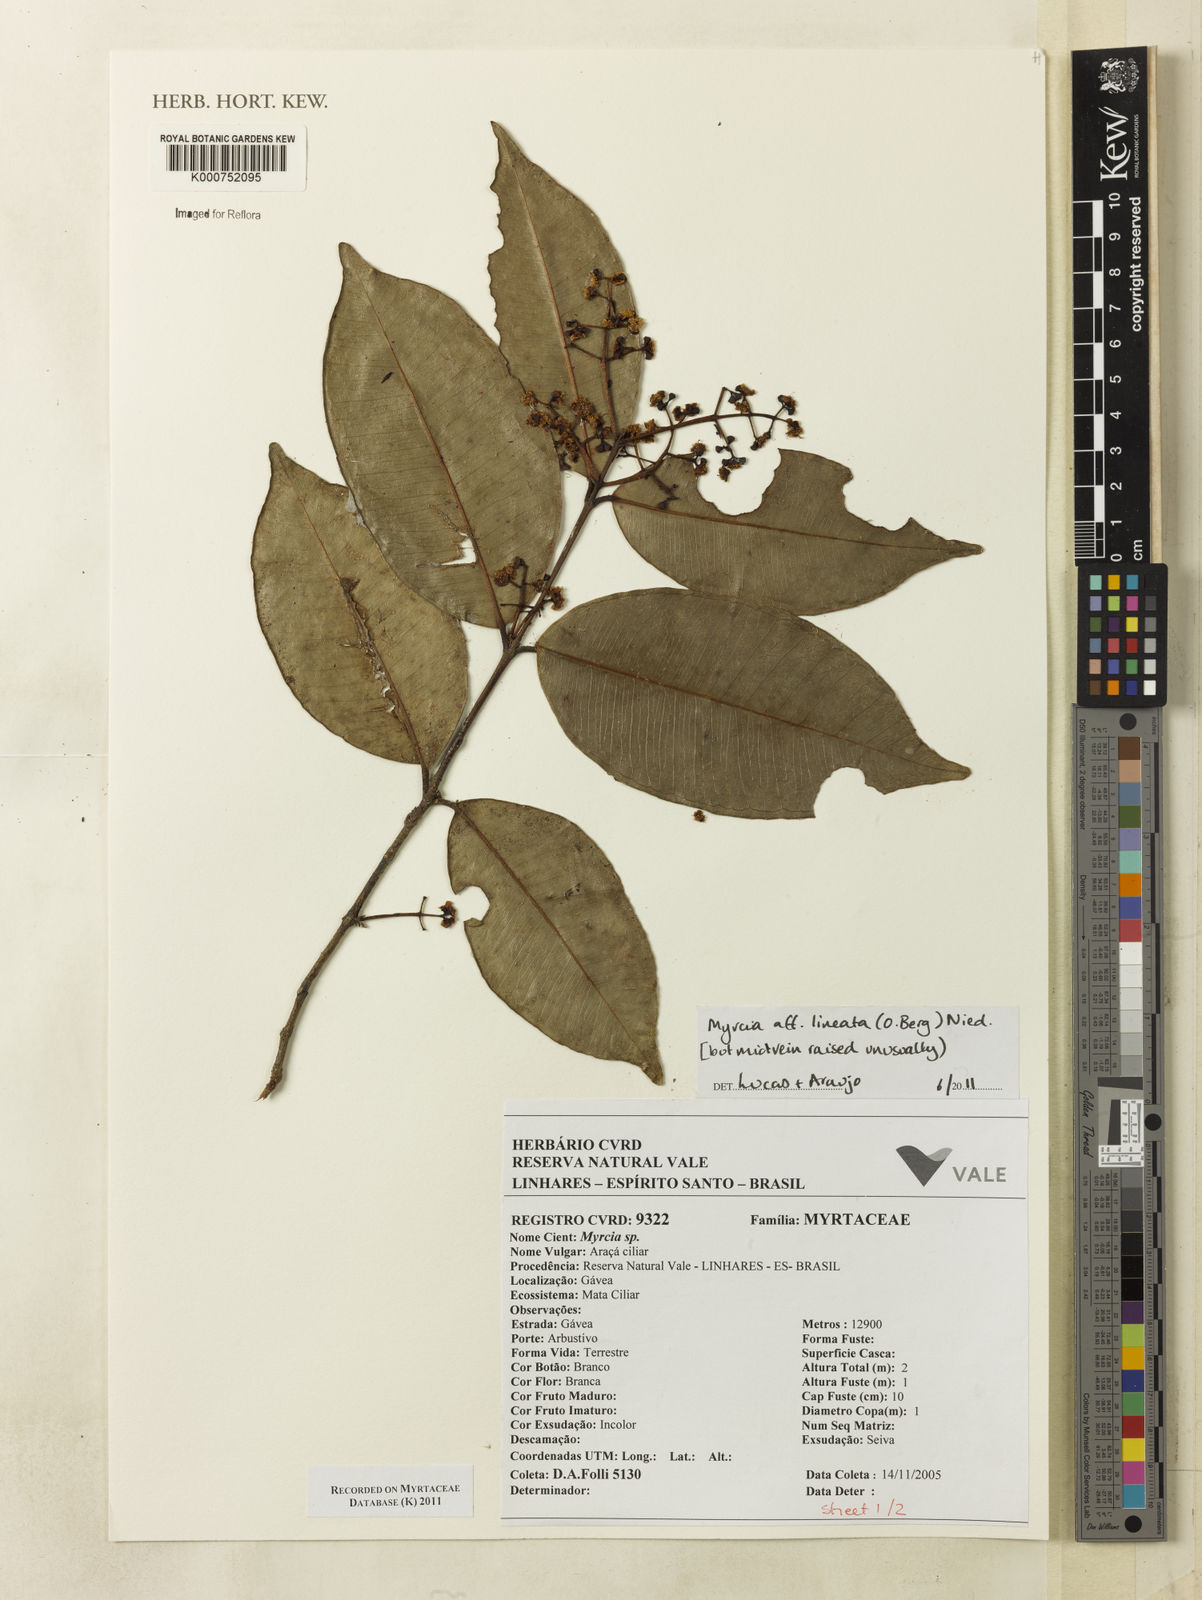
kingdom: Plantae
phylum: Tracheophyta
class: Magnoliopsida
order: Myrtales
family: Myrtaceae
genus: Myrcia
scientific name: Myrcia lineata
